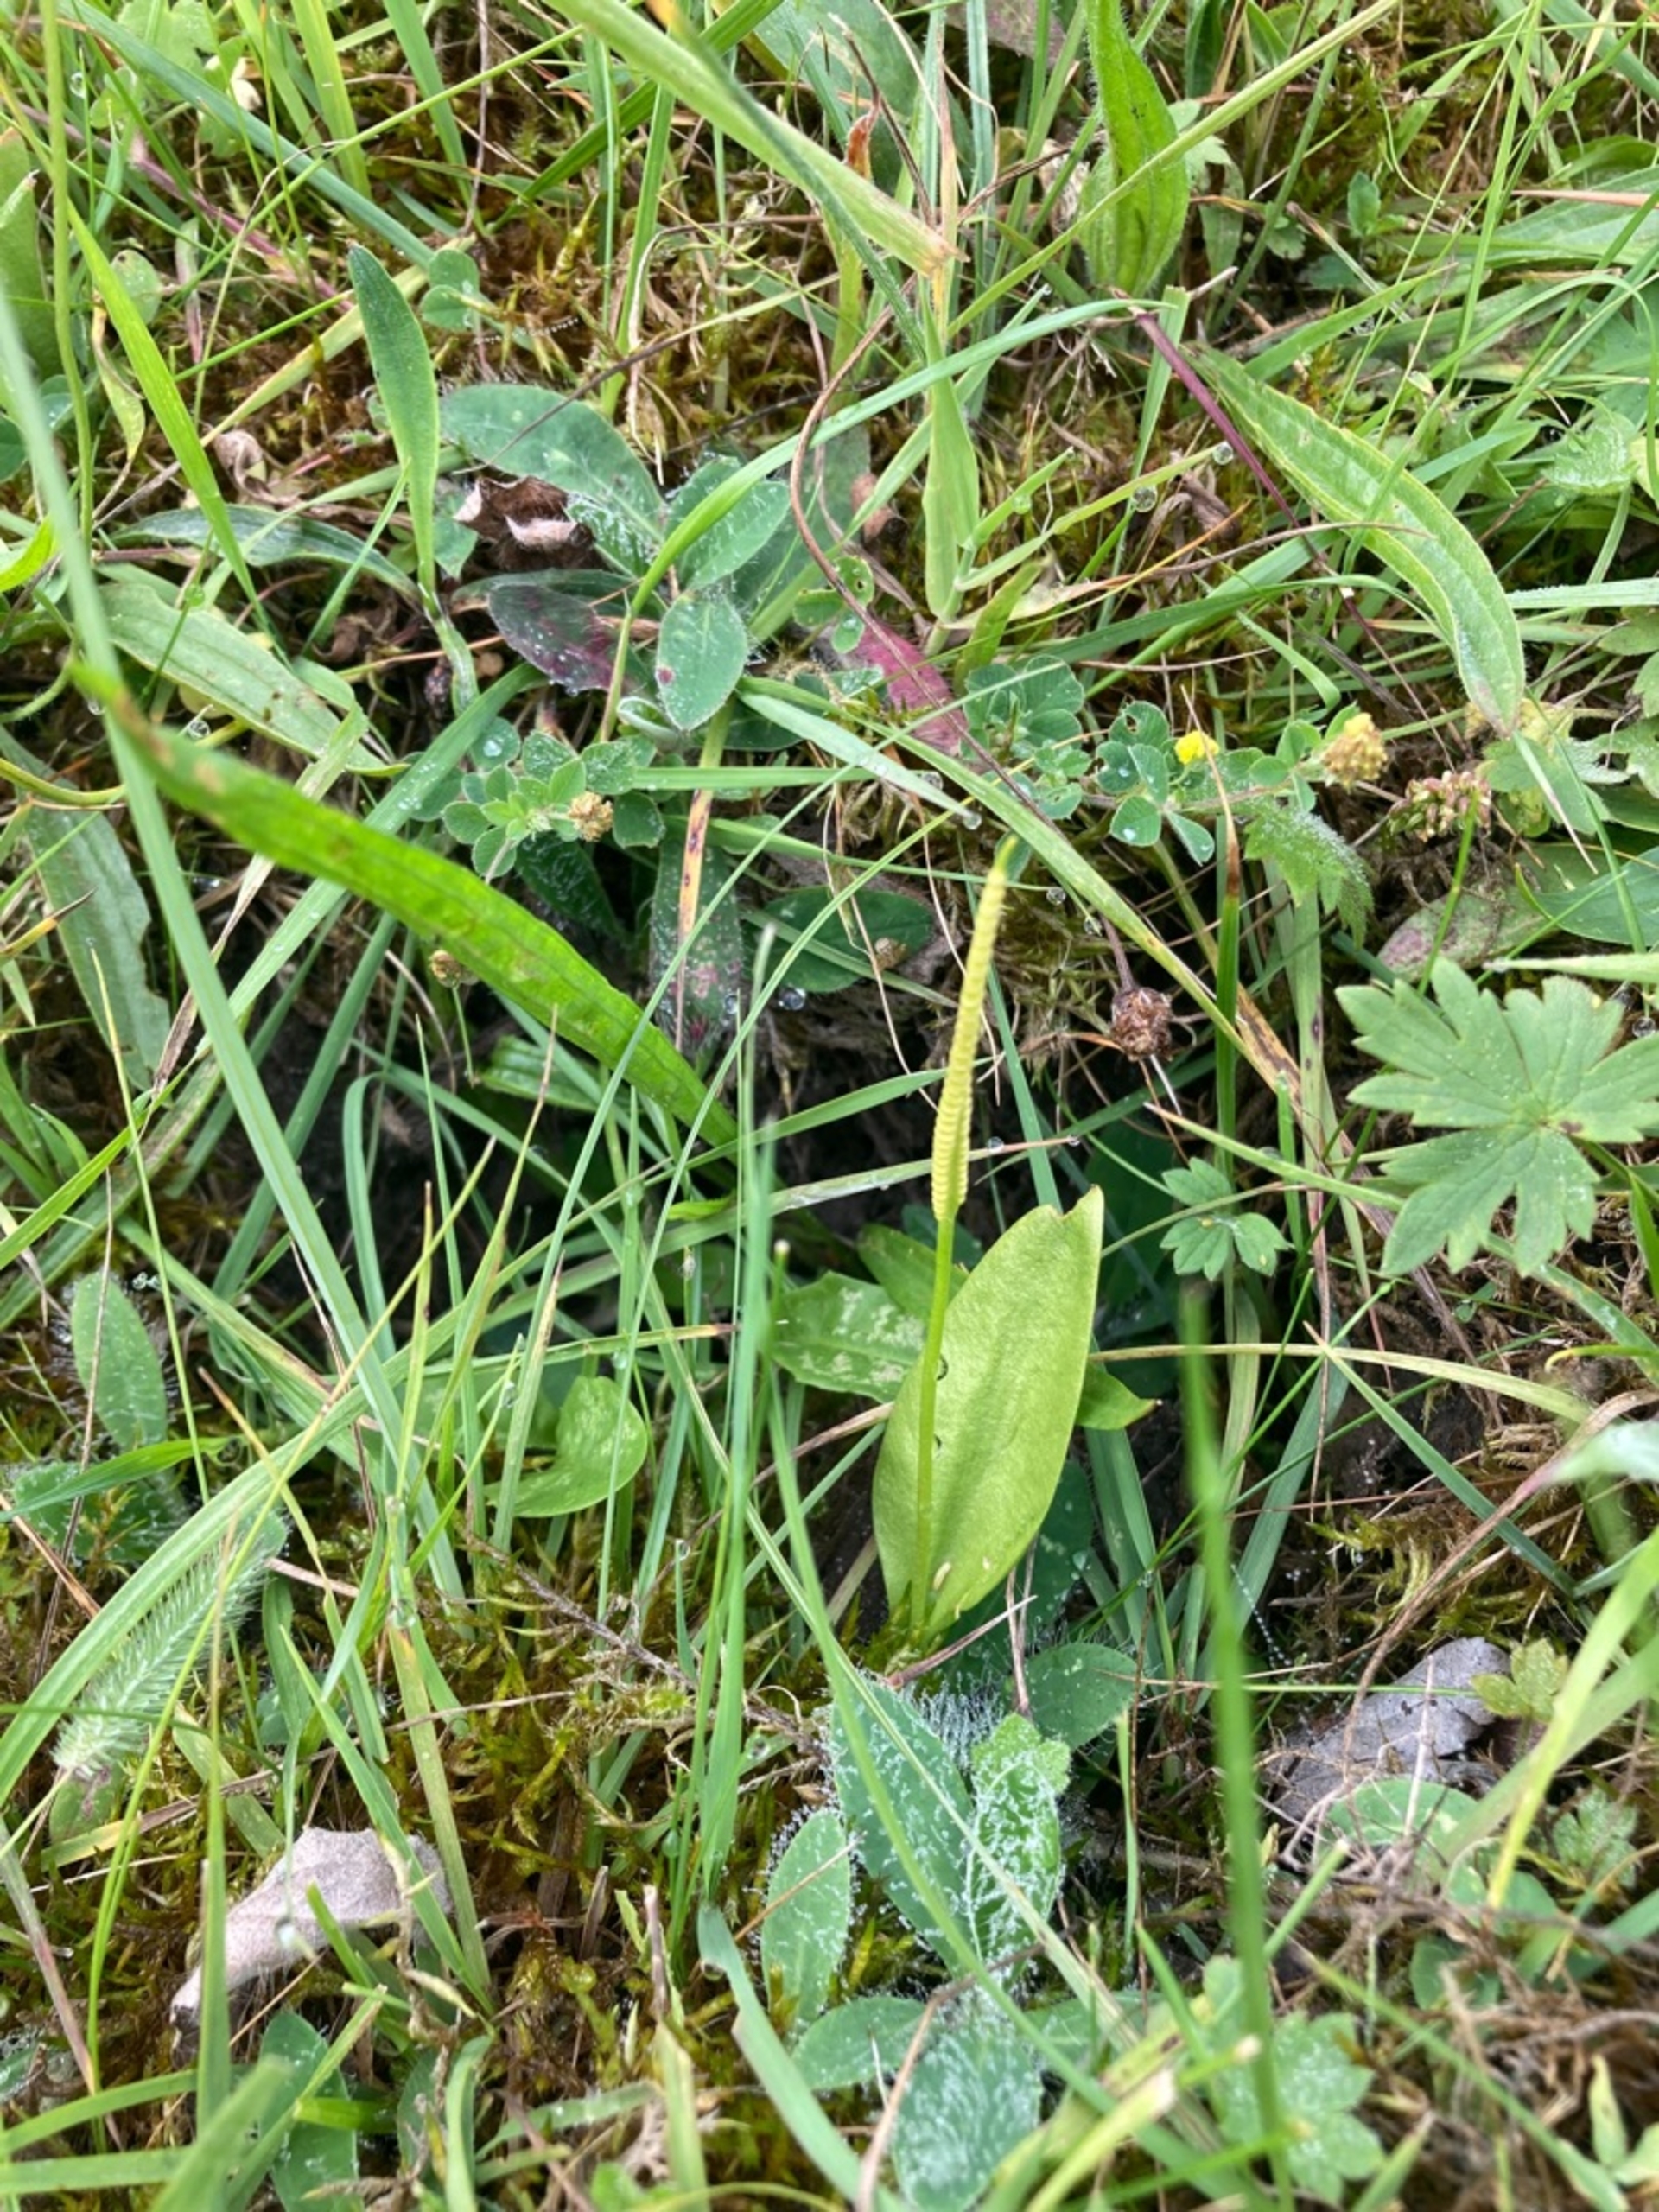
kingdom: Plantae
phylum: Tracheophyta
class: Polypodiopsida
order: Ophioglossales
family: Ophioglossaceae
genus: Ophioglossum
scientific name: Ophioglossum vulgatum
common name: Slangetunge
